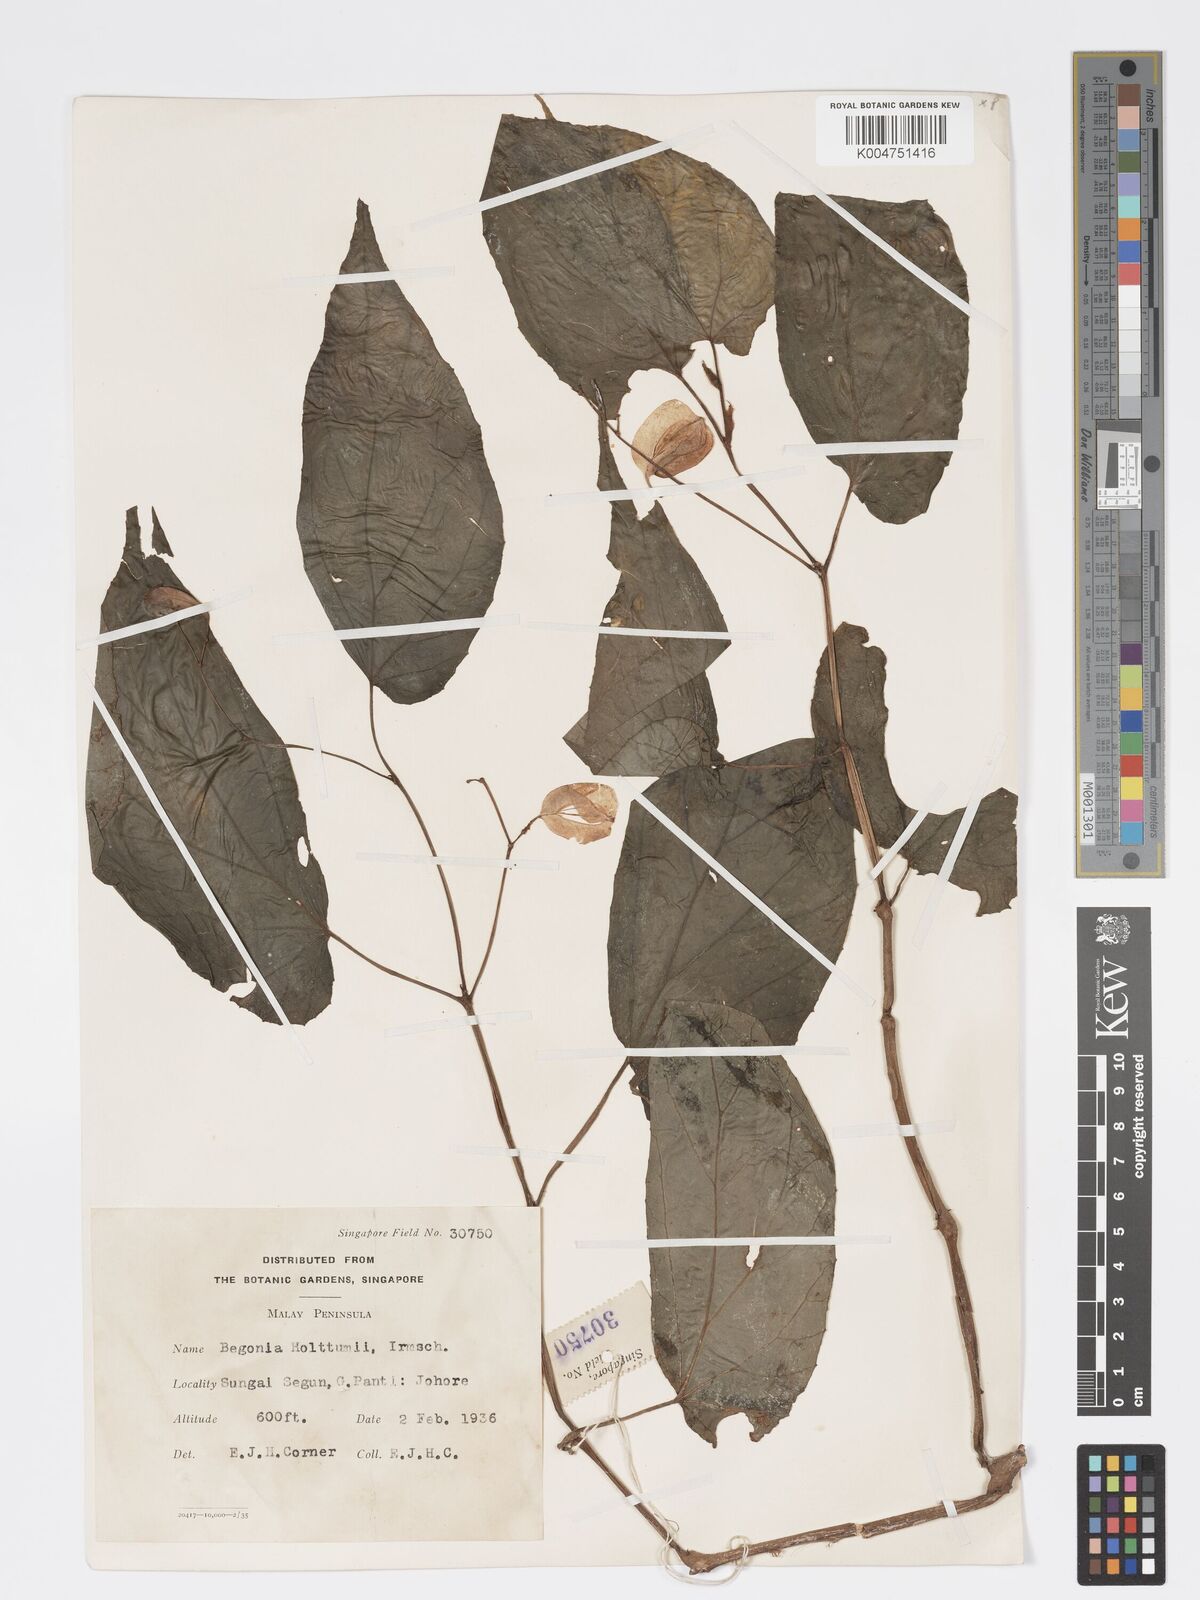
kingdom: Plantae
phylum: Tracheophyta
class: Magnoliopsida
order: Cucurbitales
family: Begoniaceae
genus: Begonia
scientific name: Begonia holttumii
